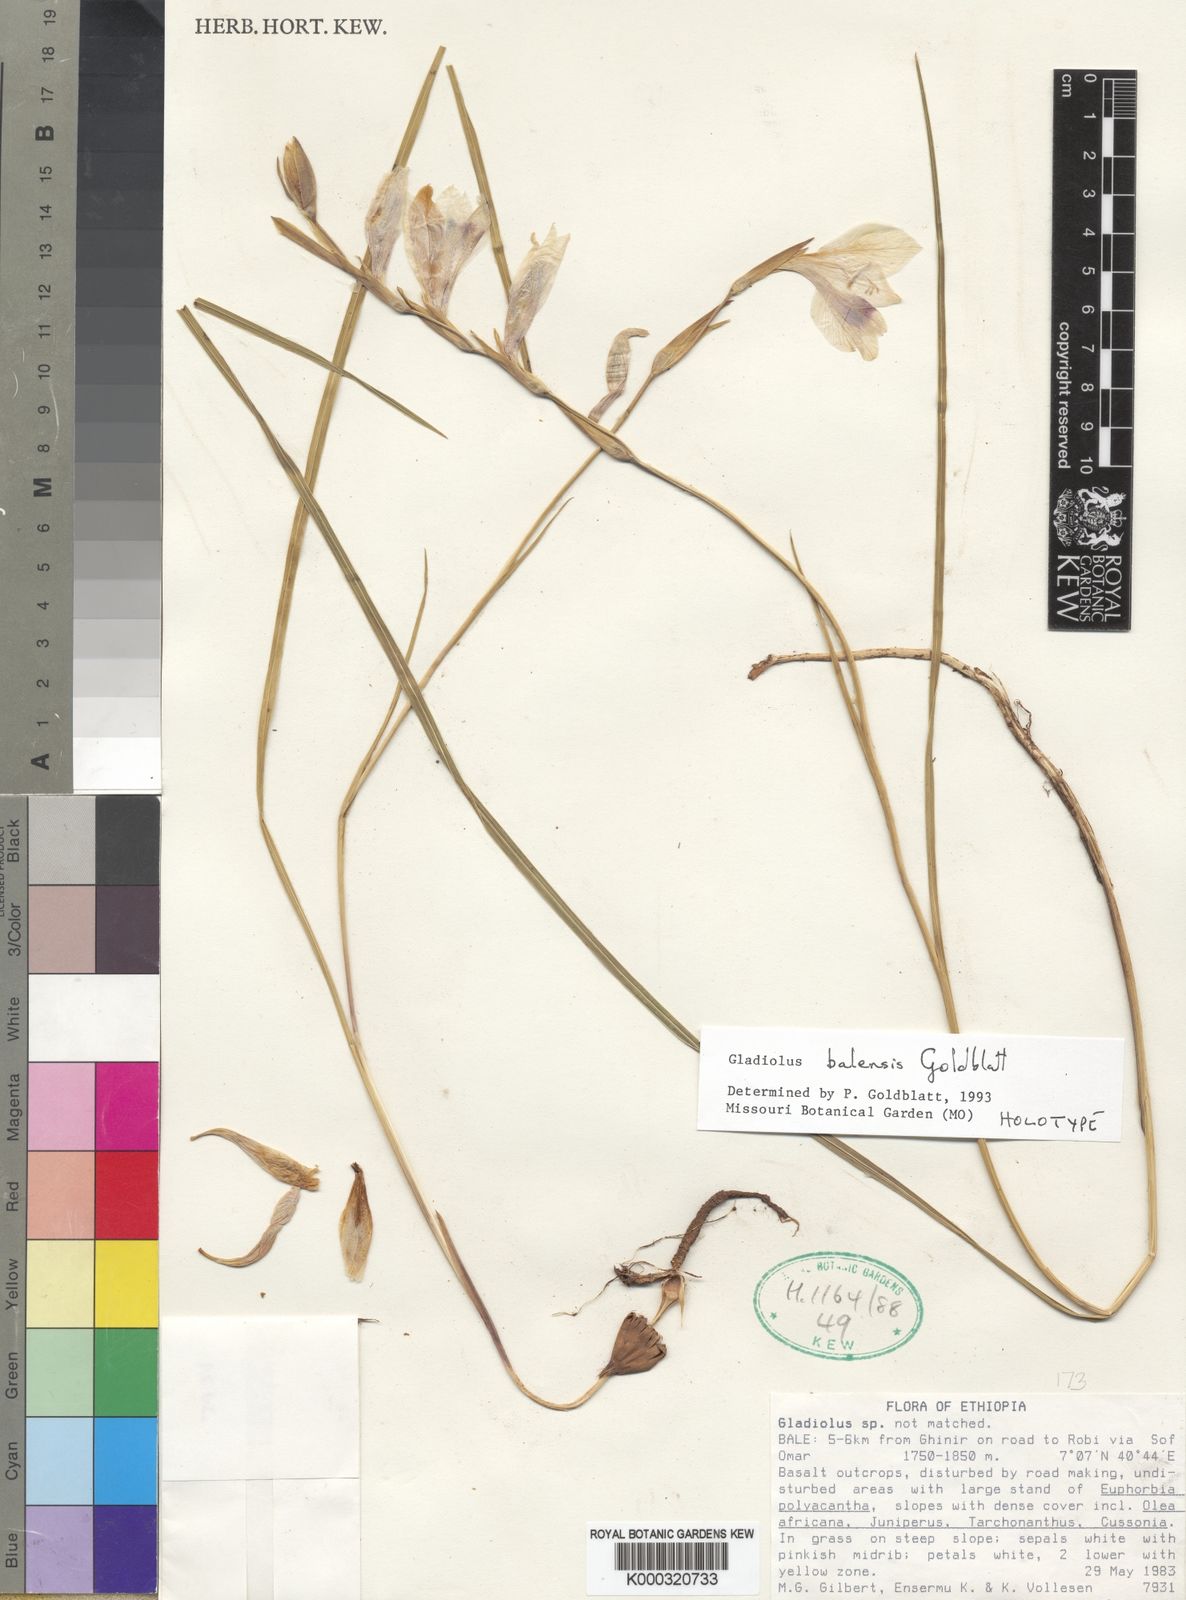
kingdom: Plantae
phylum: Tracheophyta
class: Liliopsida
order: Asparagales
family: Iridaceae
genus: Gladiolus
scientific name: Gladiolus balensis
